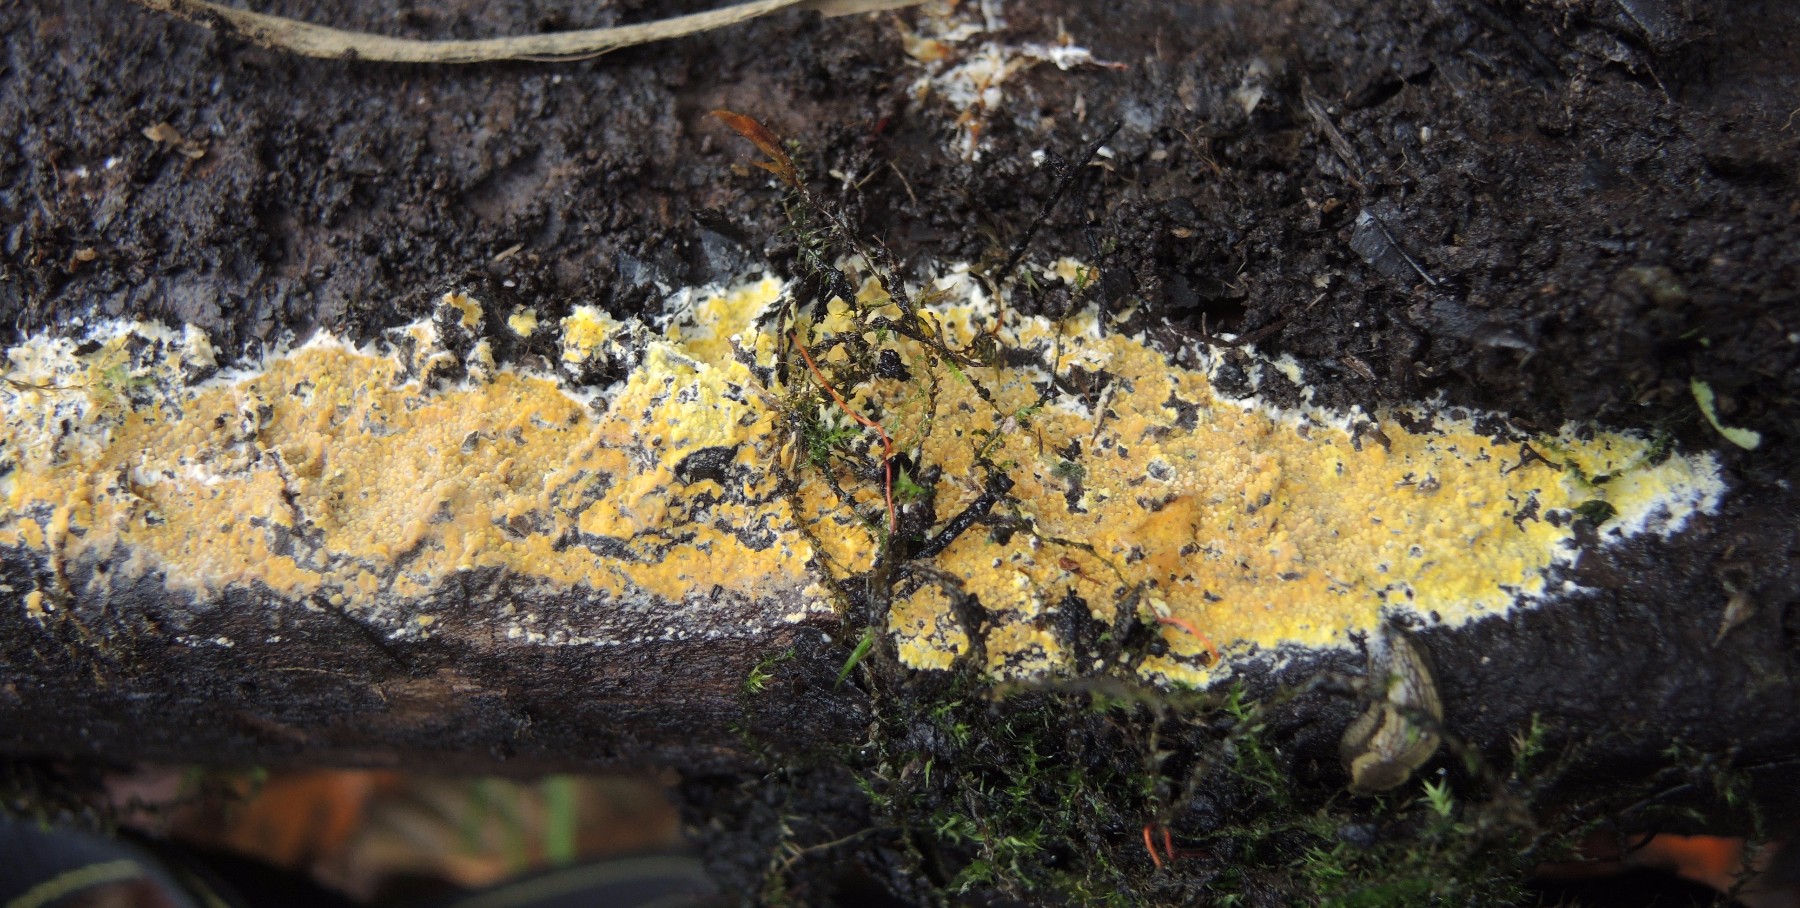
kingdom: Fungi
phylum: Basidiomycota
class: Agaricomycetes
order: Polyporales
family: Meruliaceae
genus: Phlebiodontia
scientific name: Phlebiodontia subochracea
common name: svovl-åresvamp
